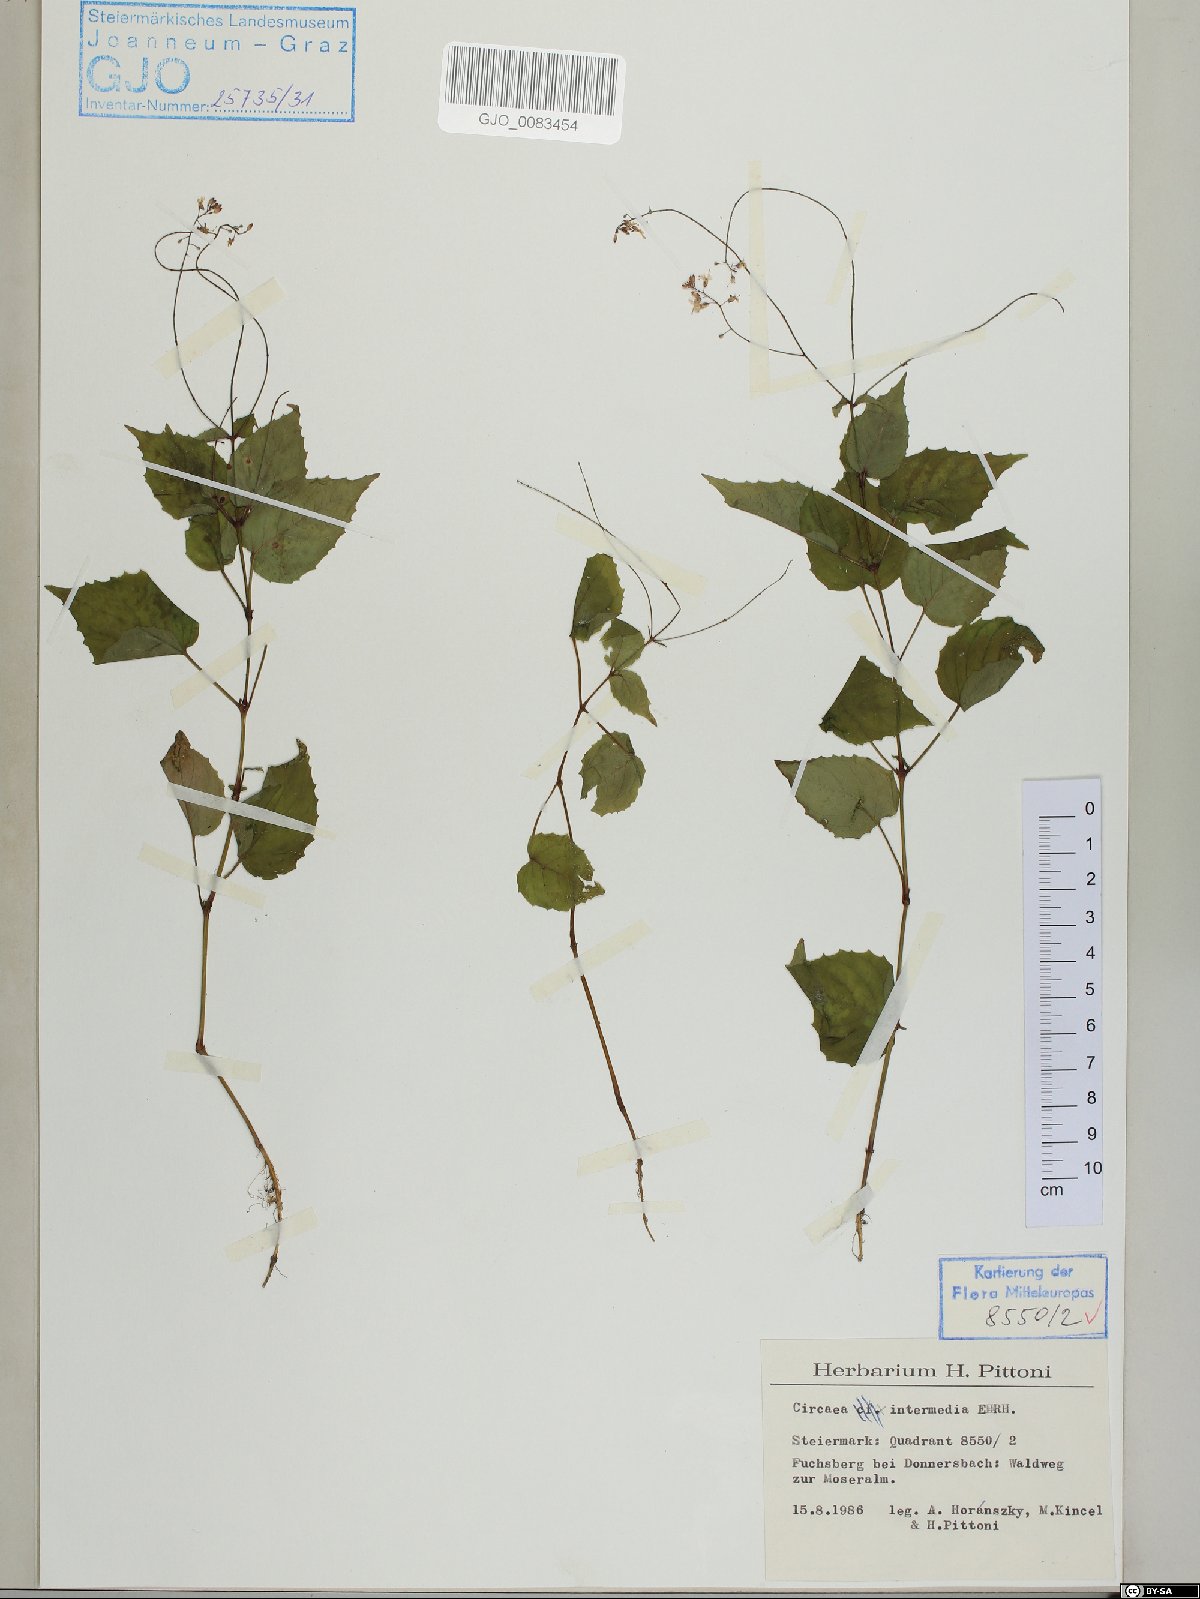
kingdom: Plantae
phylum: Tracheophyta
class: Magnoliopsida
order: Myrtales
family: Onagraceae
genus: Circaea
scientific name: Circaea intermedia
